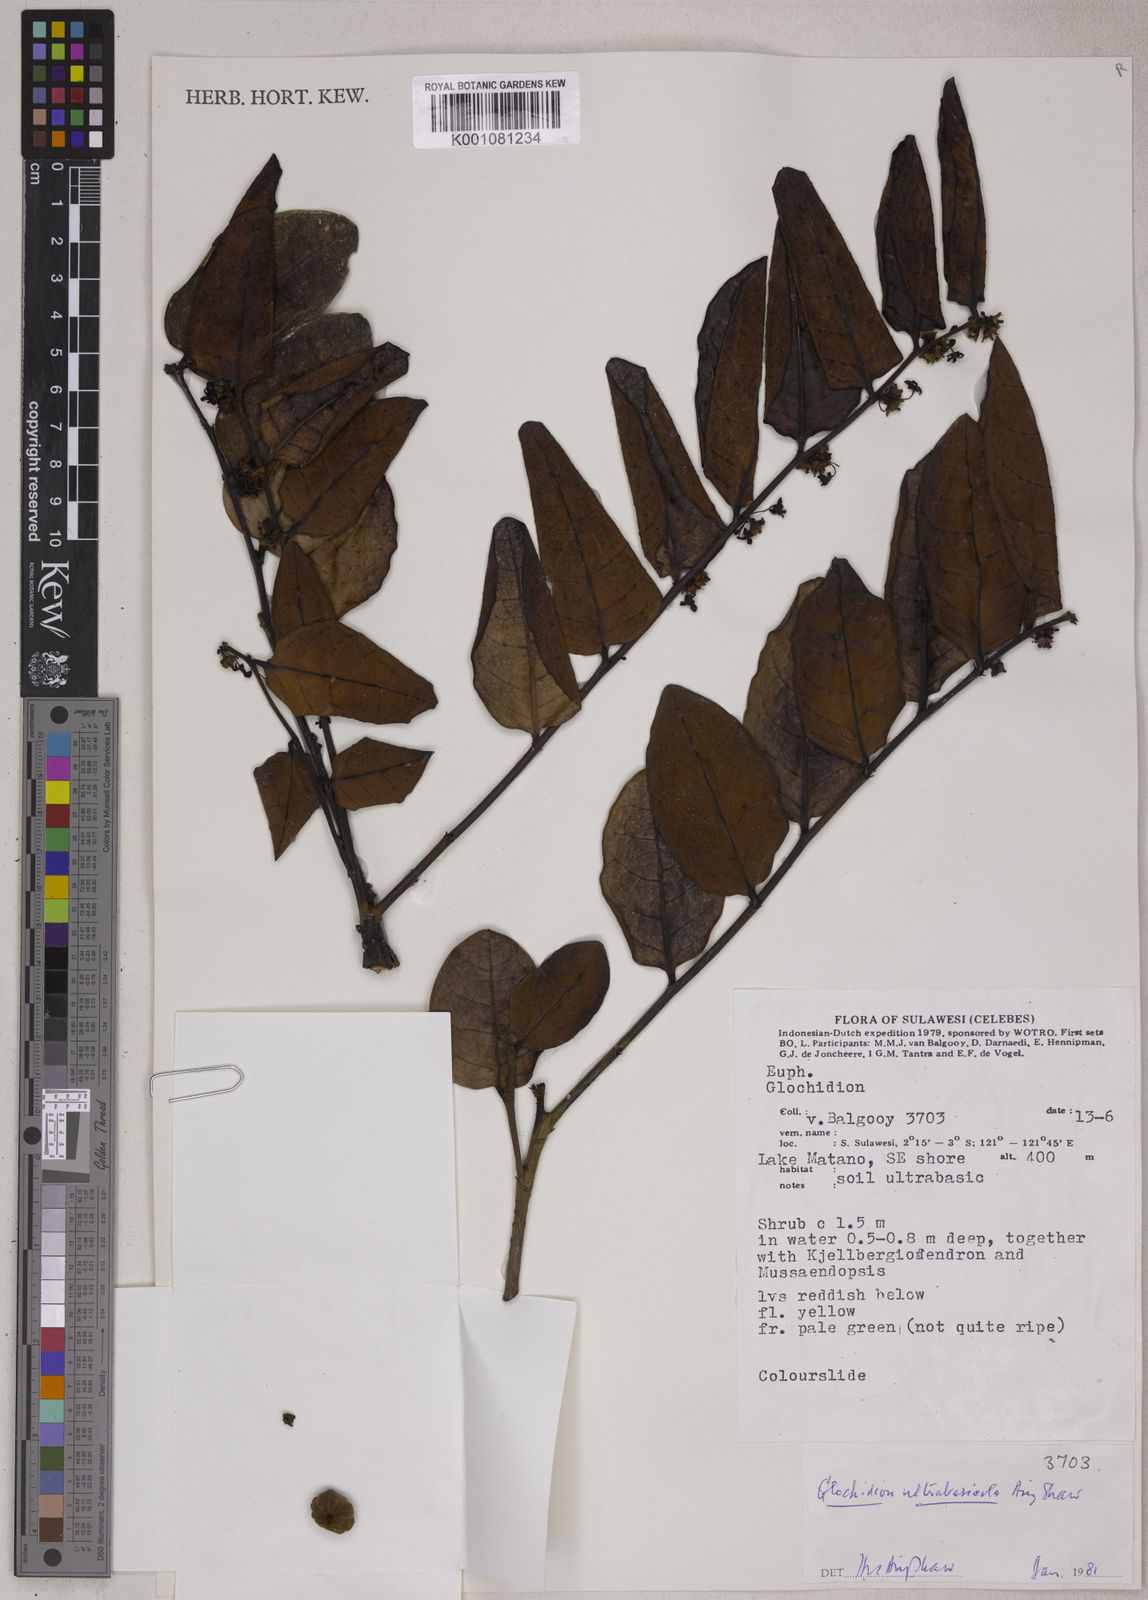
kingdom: Plantae
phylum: Tracheophyta
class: Magnoliopsida
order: Malpighiales
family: Phyllanthaceae
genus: Glochidion
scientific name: Glochidion ultrabasicola
